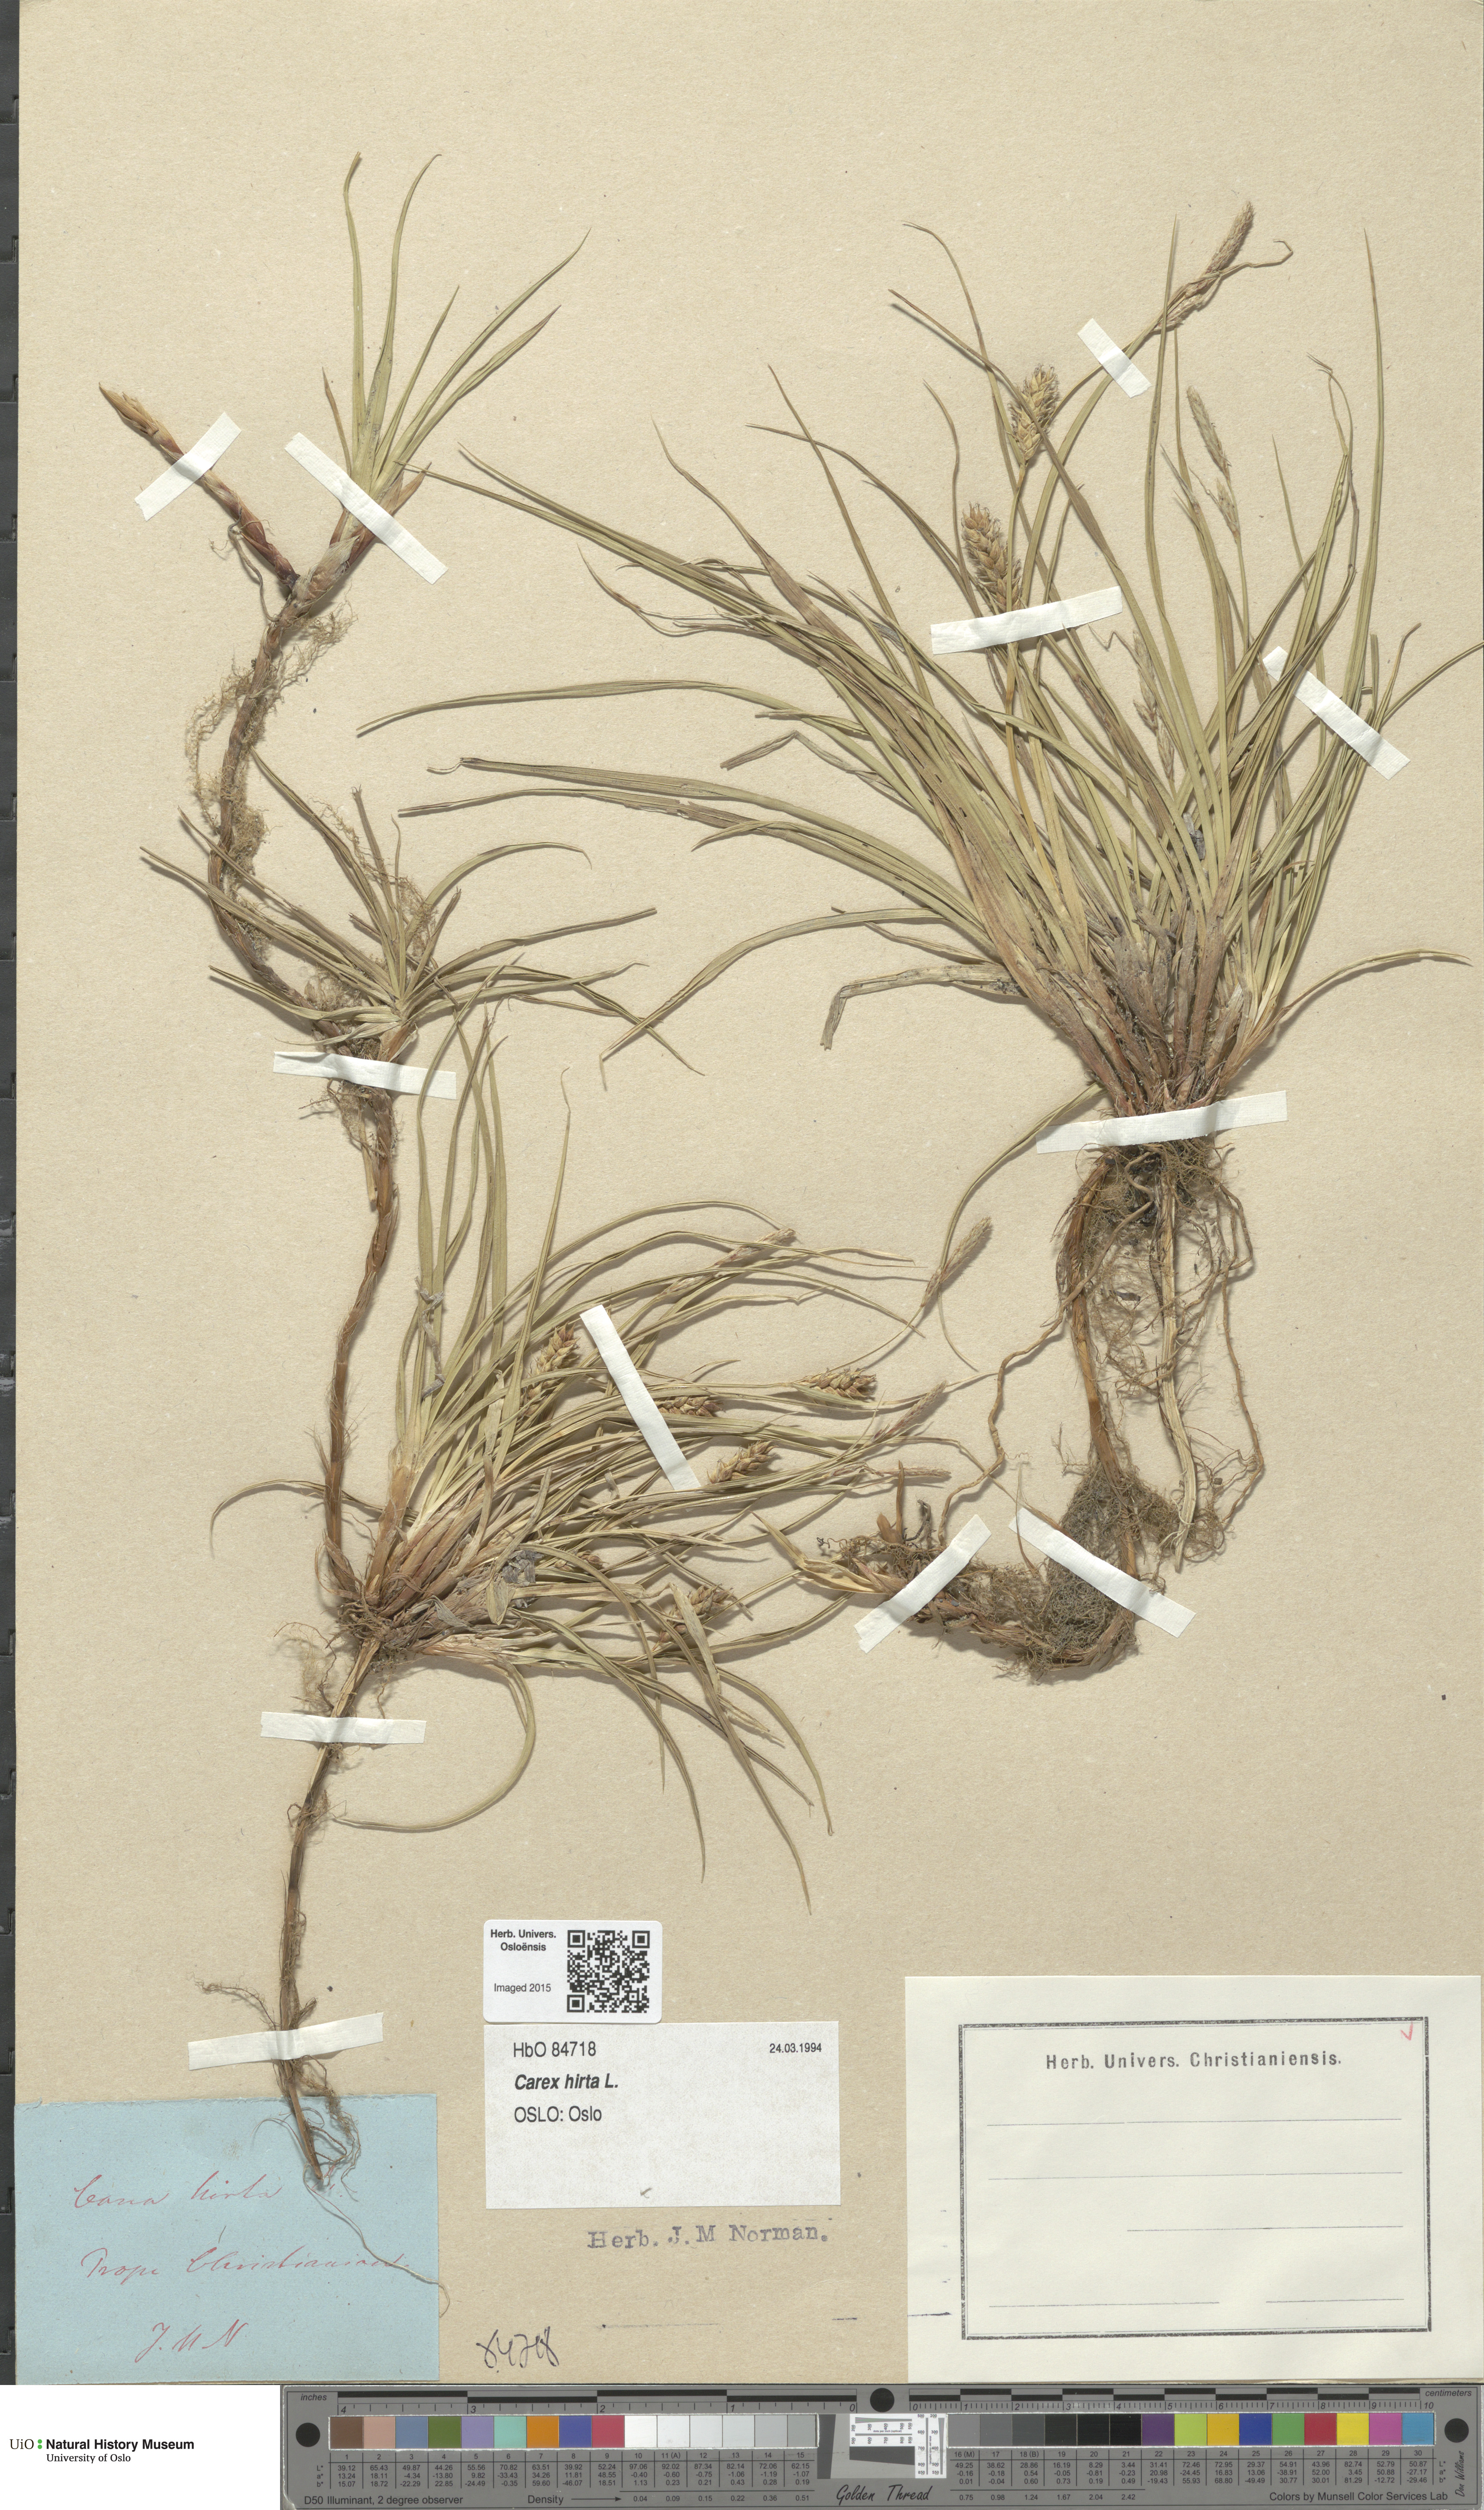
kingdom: Plantae
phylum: Tracheophyta
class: Liliopsida
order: Poales
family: Cyperaceae
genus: Carex
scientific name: Carex hirta
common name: Hairy sedge
